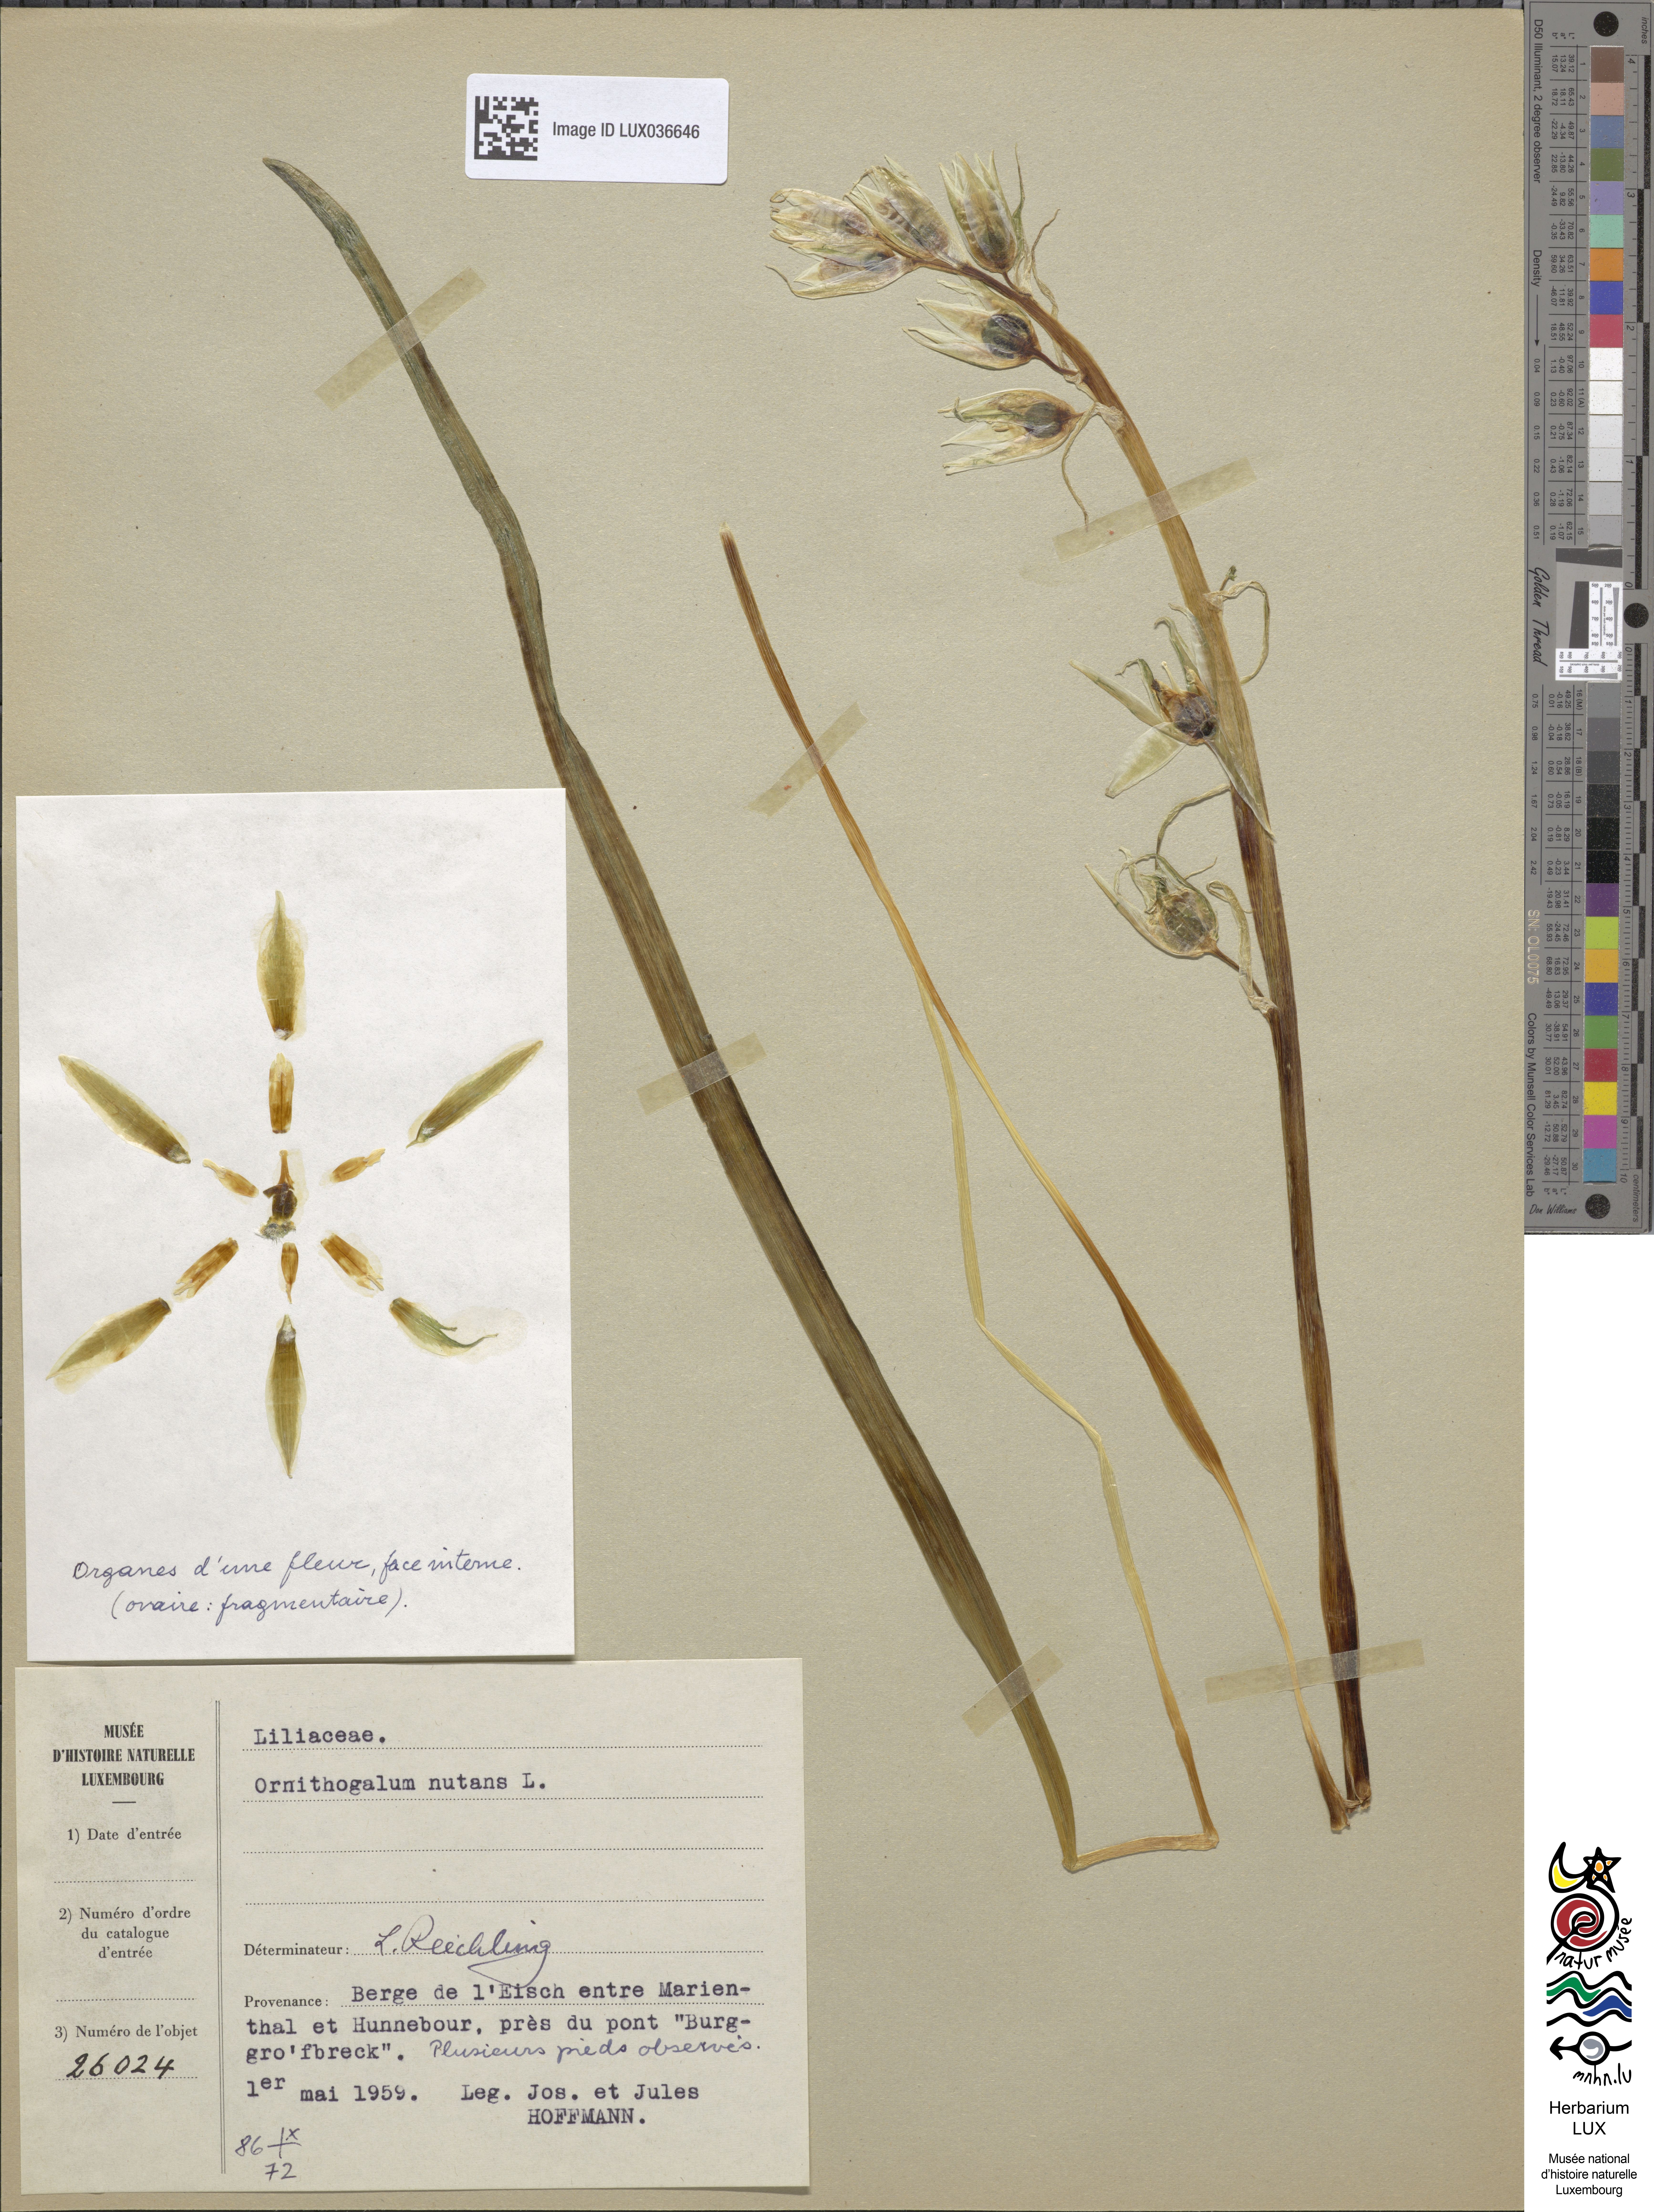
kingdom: Plantae
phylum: Tracheophyta
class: Liliopsida
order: Asparagales
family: Asparagaceae
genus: Ornithogalum
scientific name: Ornithogalum nutans
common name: Drooping star-of-bethlehem
